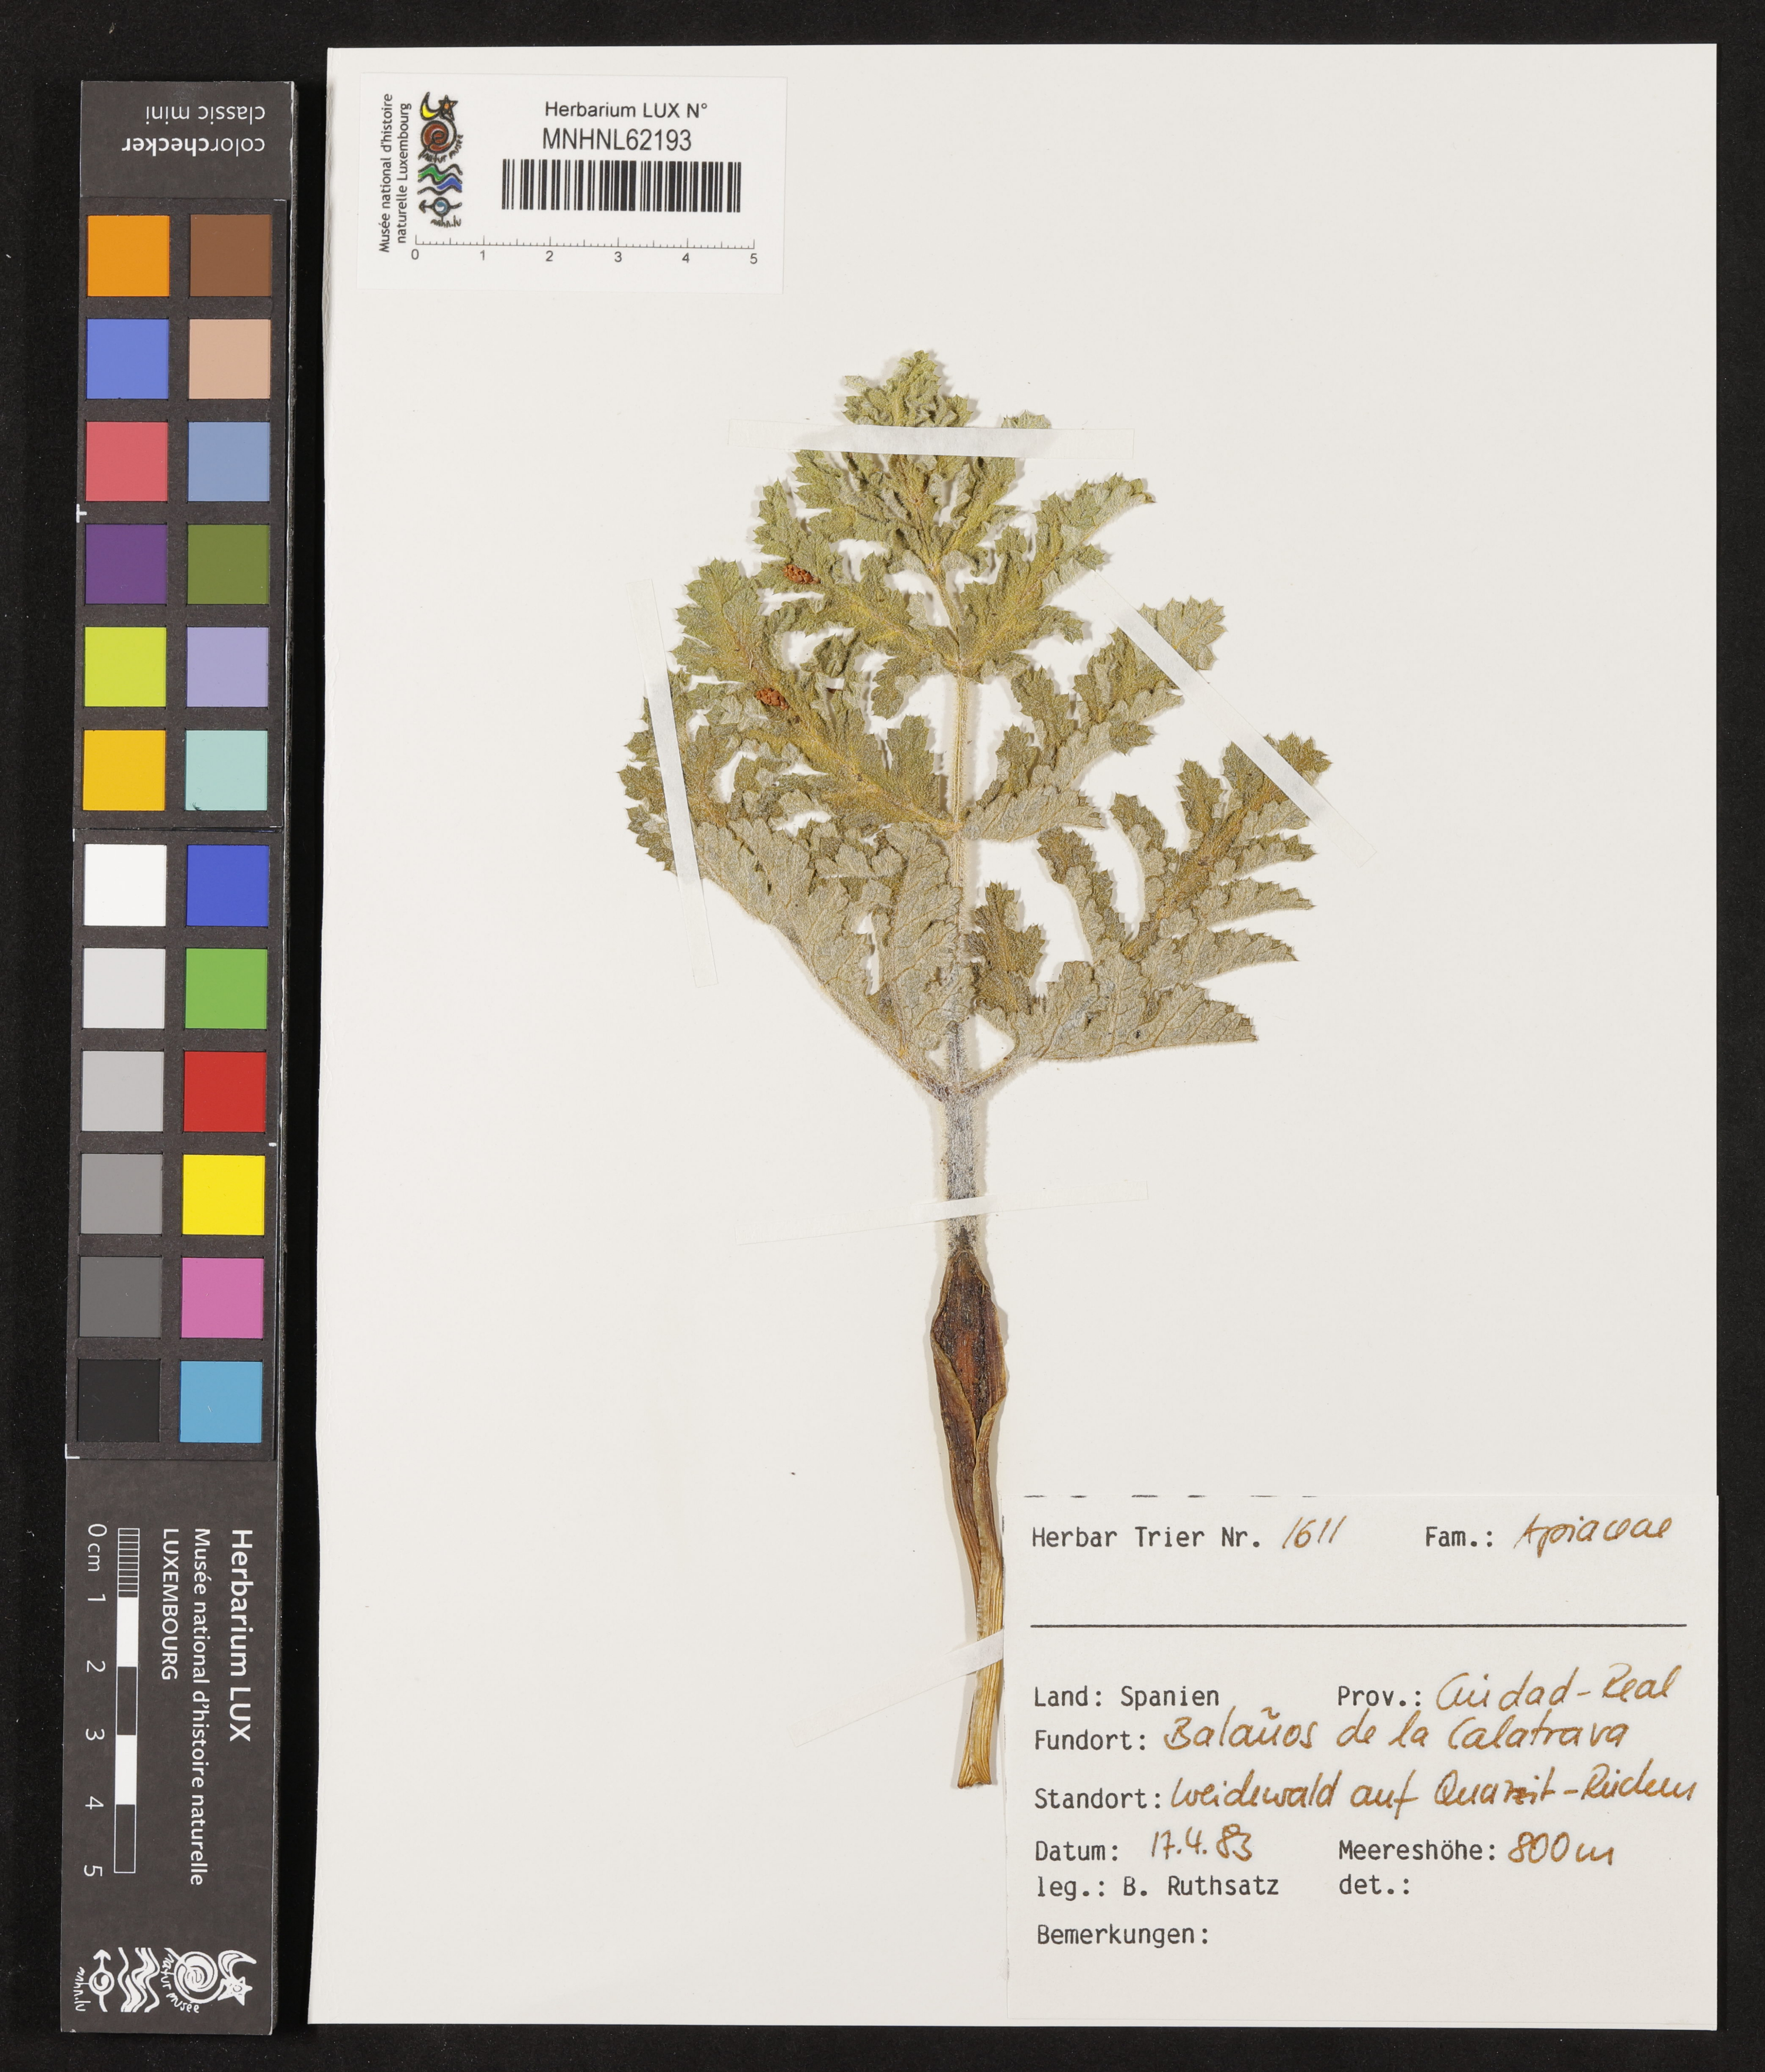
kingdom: Plantae
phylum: Tracheophyta
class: Magnoliopsida
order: Apiales
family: Apiaceae
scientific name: Apiaceae
